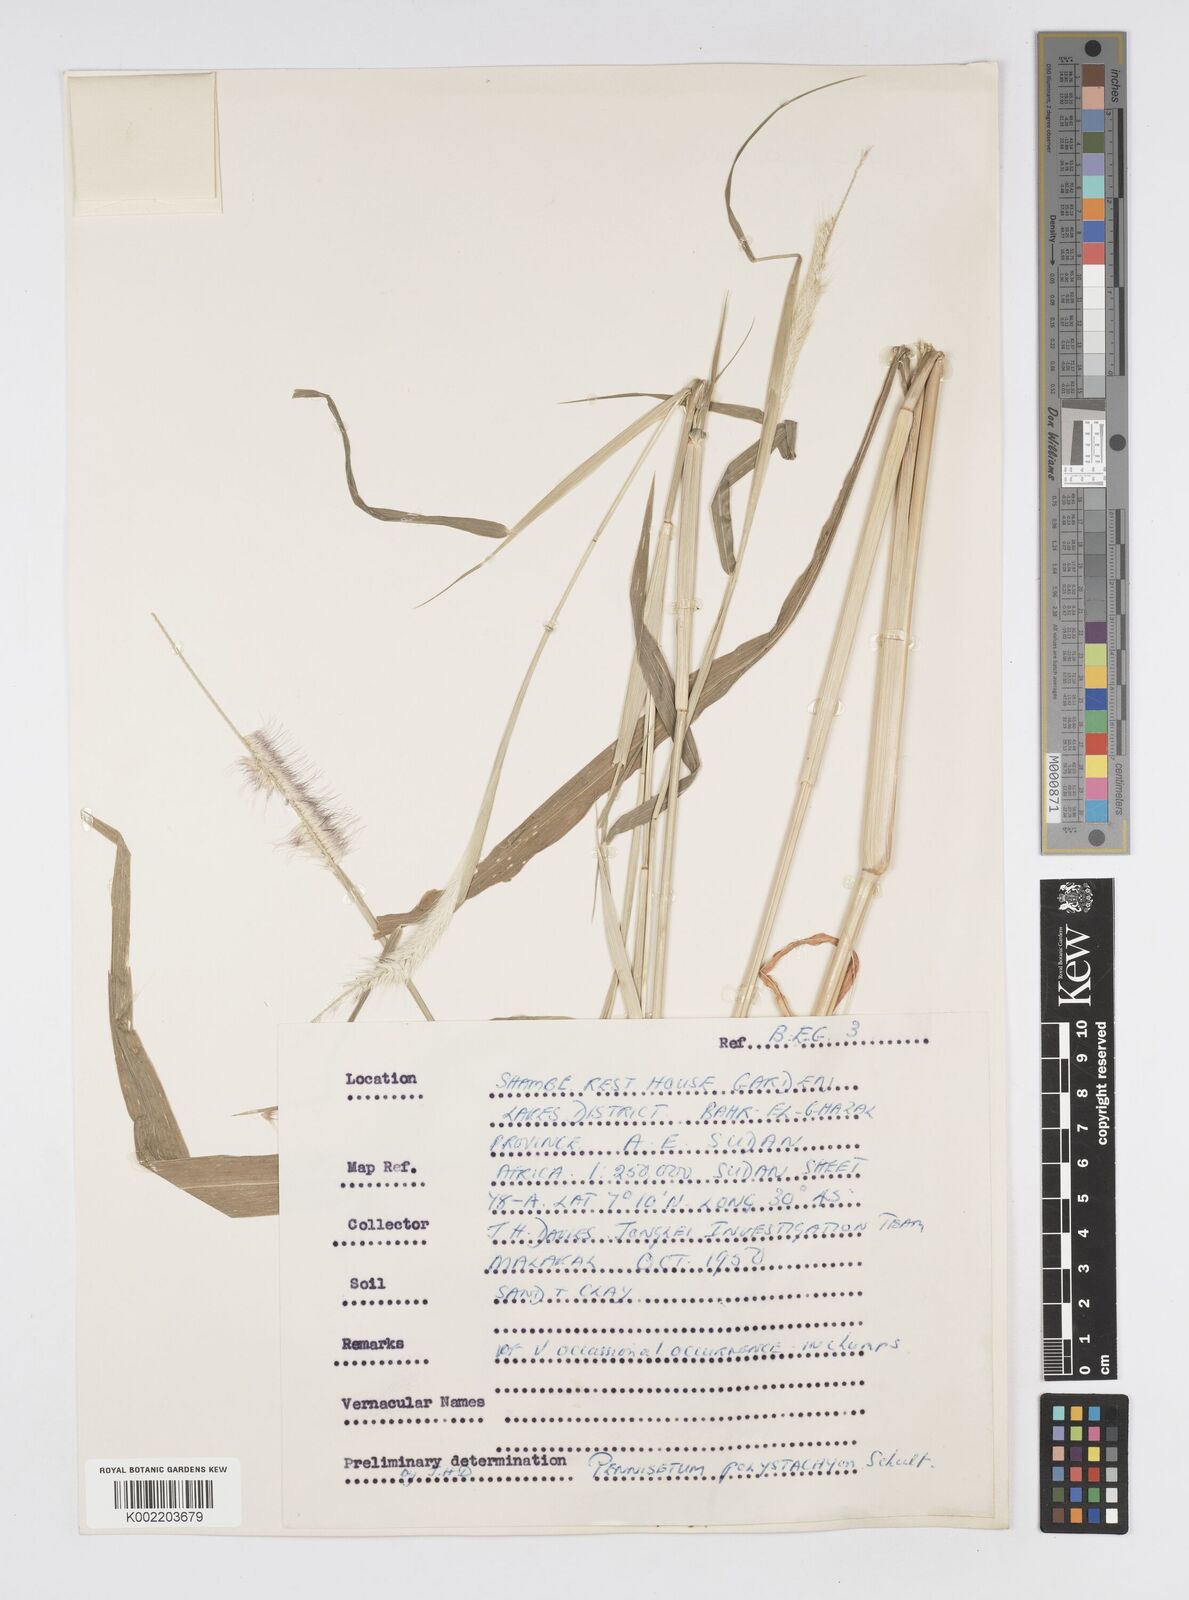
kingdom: Plantae
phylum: Tracheophyta
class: Liliopsida
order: Poales
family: Poaceae
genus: Setaria
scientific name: Setaria parviflora
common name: Knotroot bristle-grass
